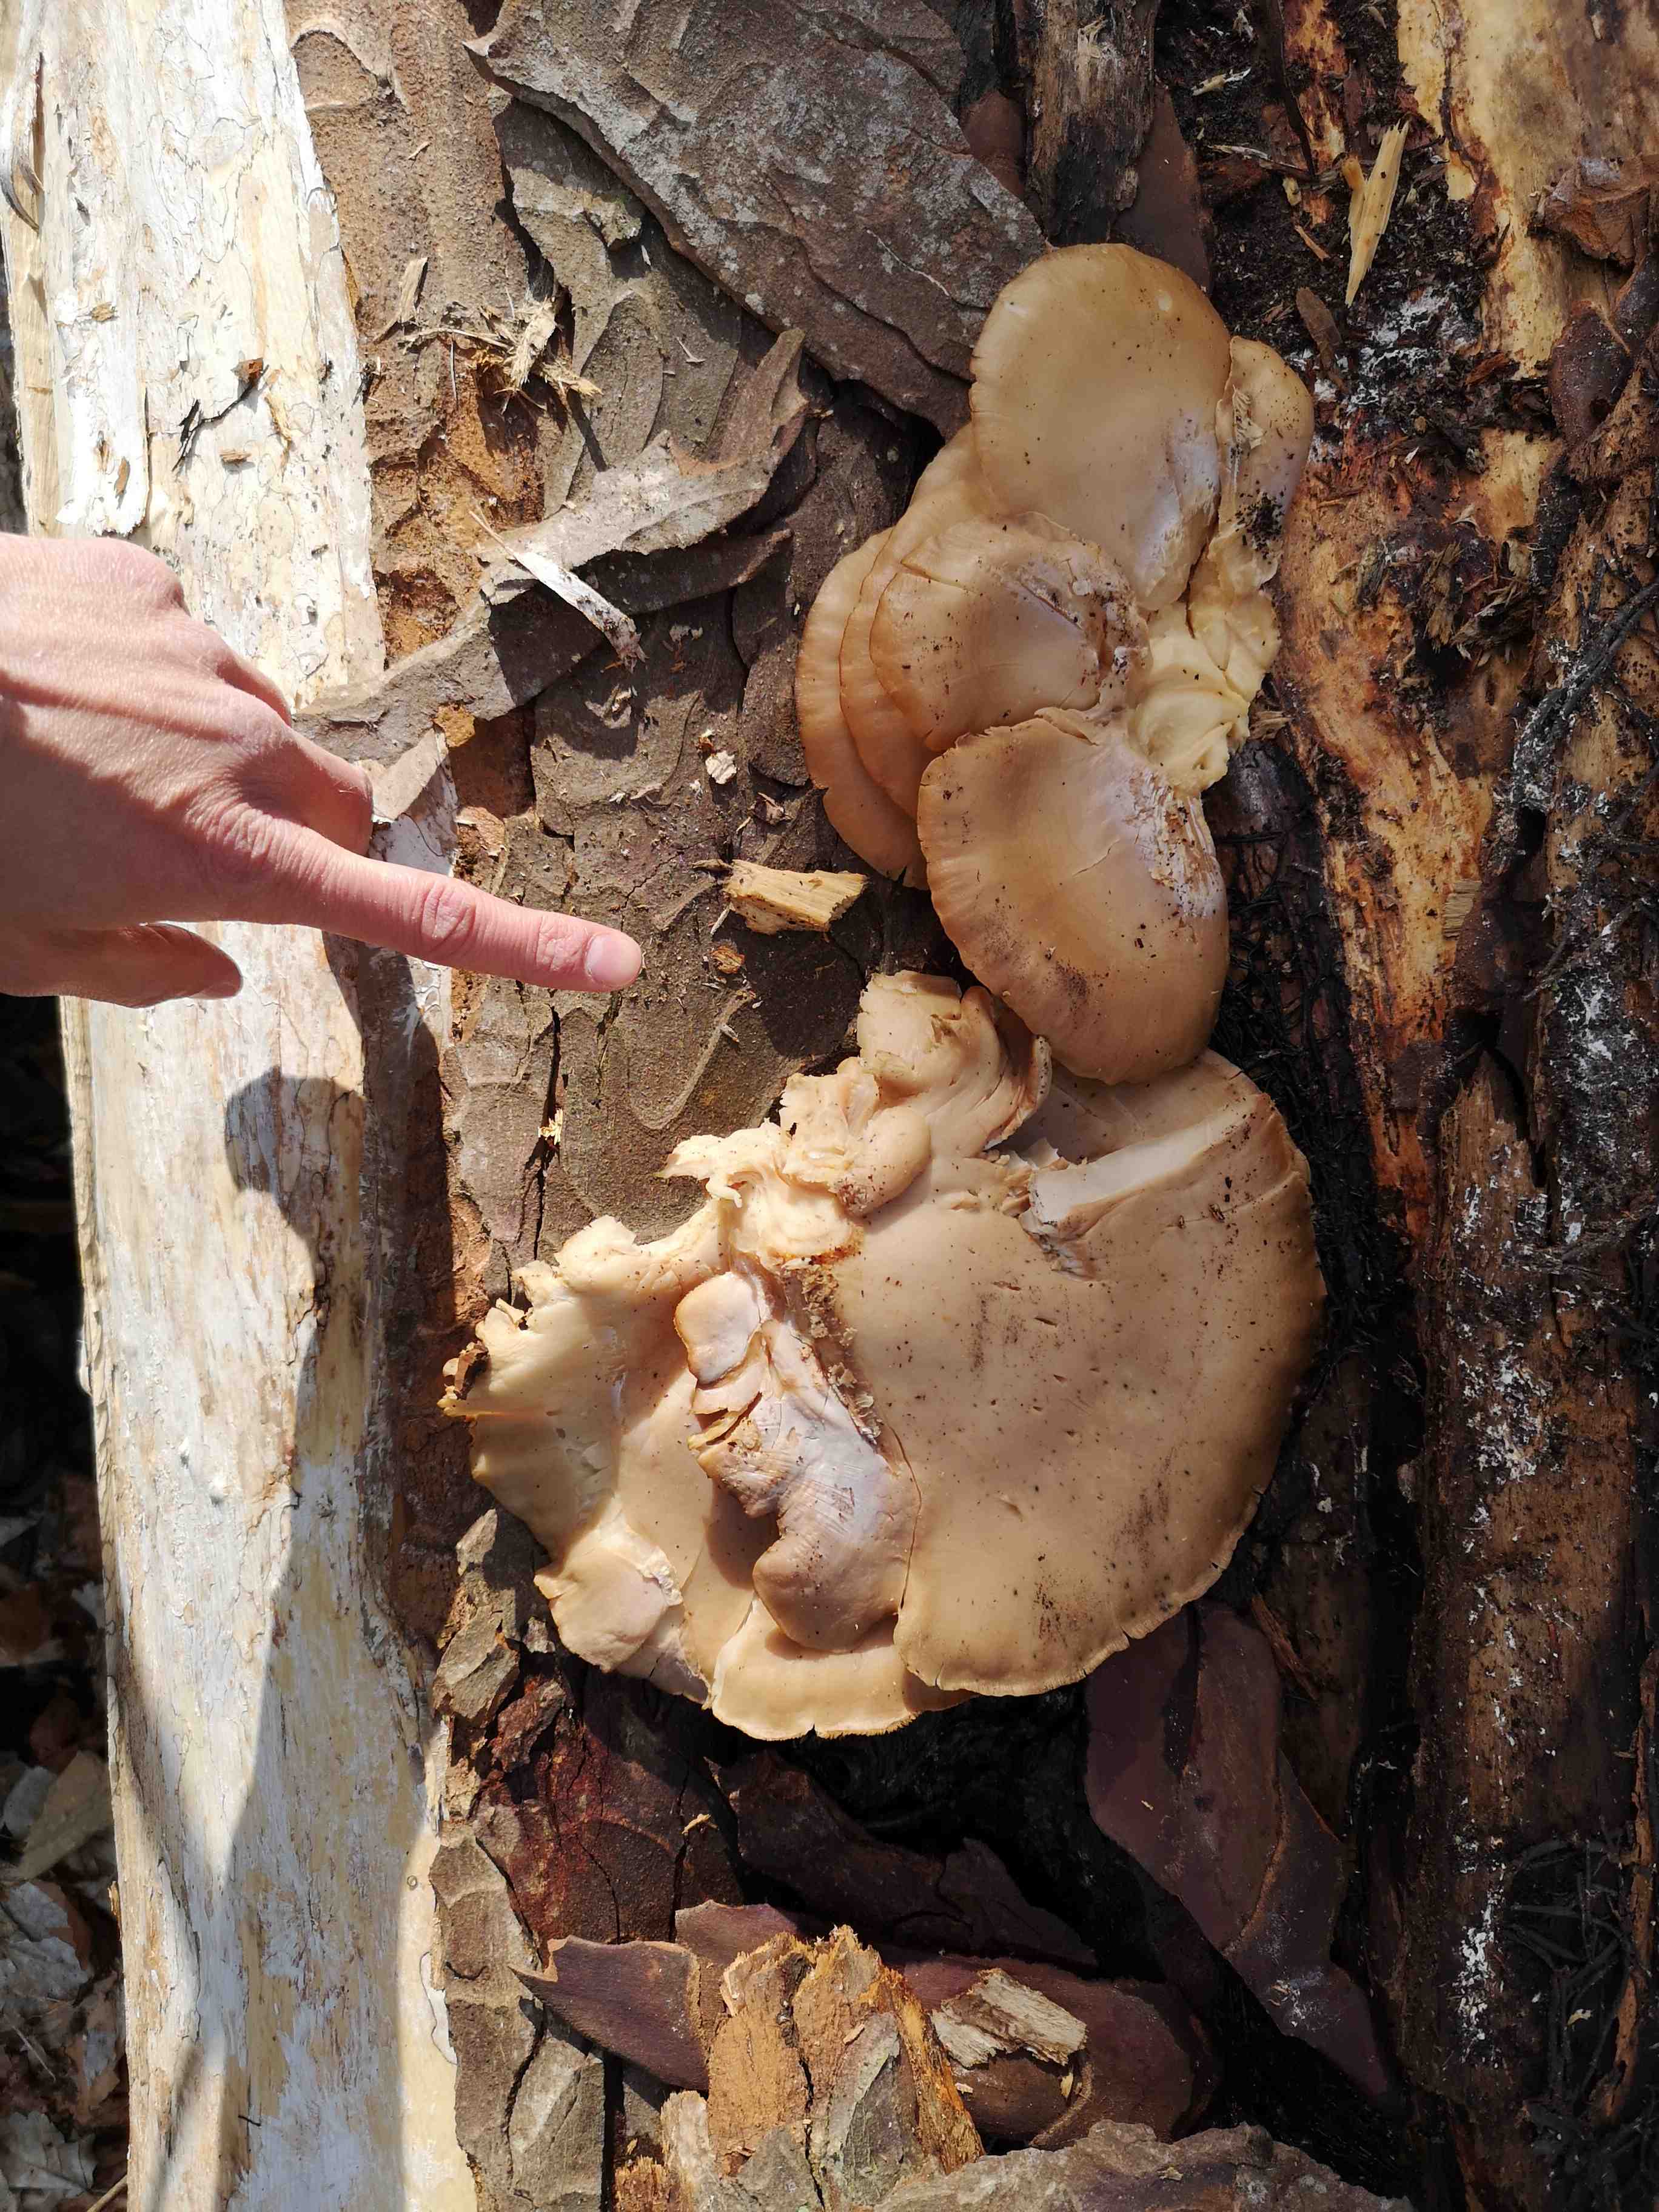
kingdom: Fungi
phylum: Basidiomycota
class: Agaricomycetes
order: Agaricales
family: Pleurotaceae
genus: Pleurotus
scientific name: Pleurotus ostreatus
